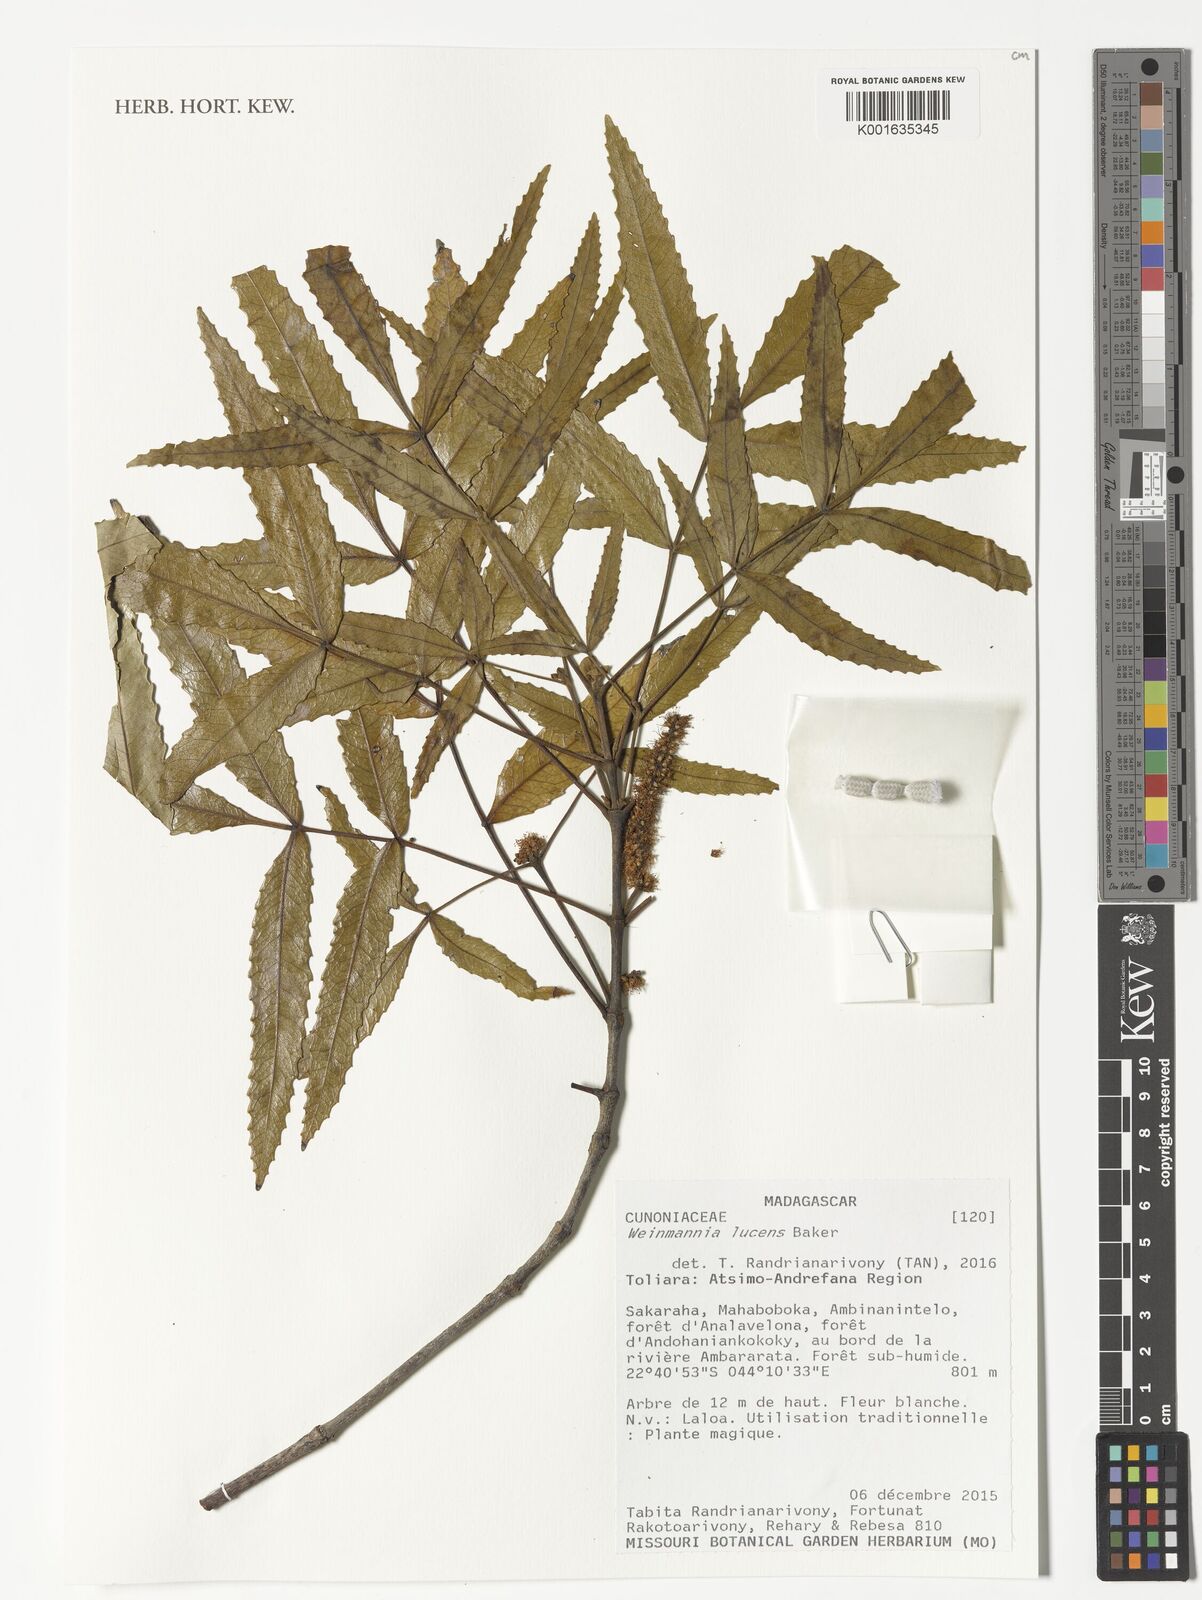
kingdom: Plantae
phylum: Tracheophyta
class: Magnoliopsida
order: Oxalidales
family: Cunoniaceae
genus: Pterophylla
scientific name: Pterophylla lucens
